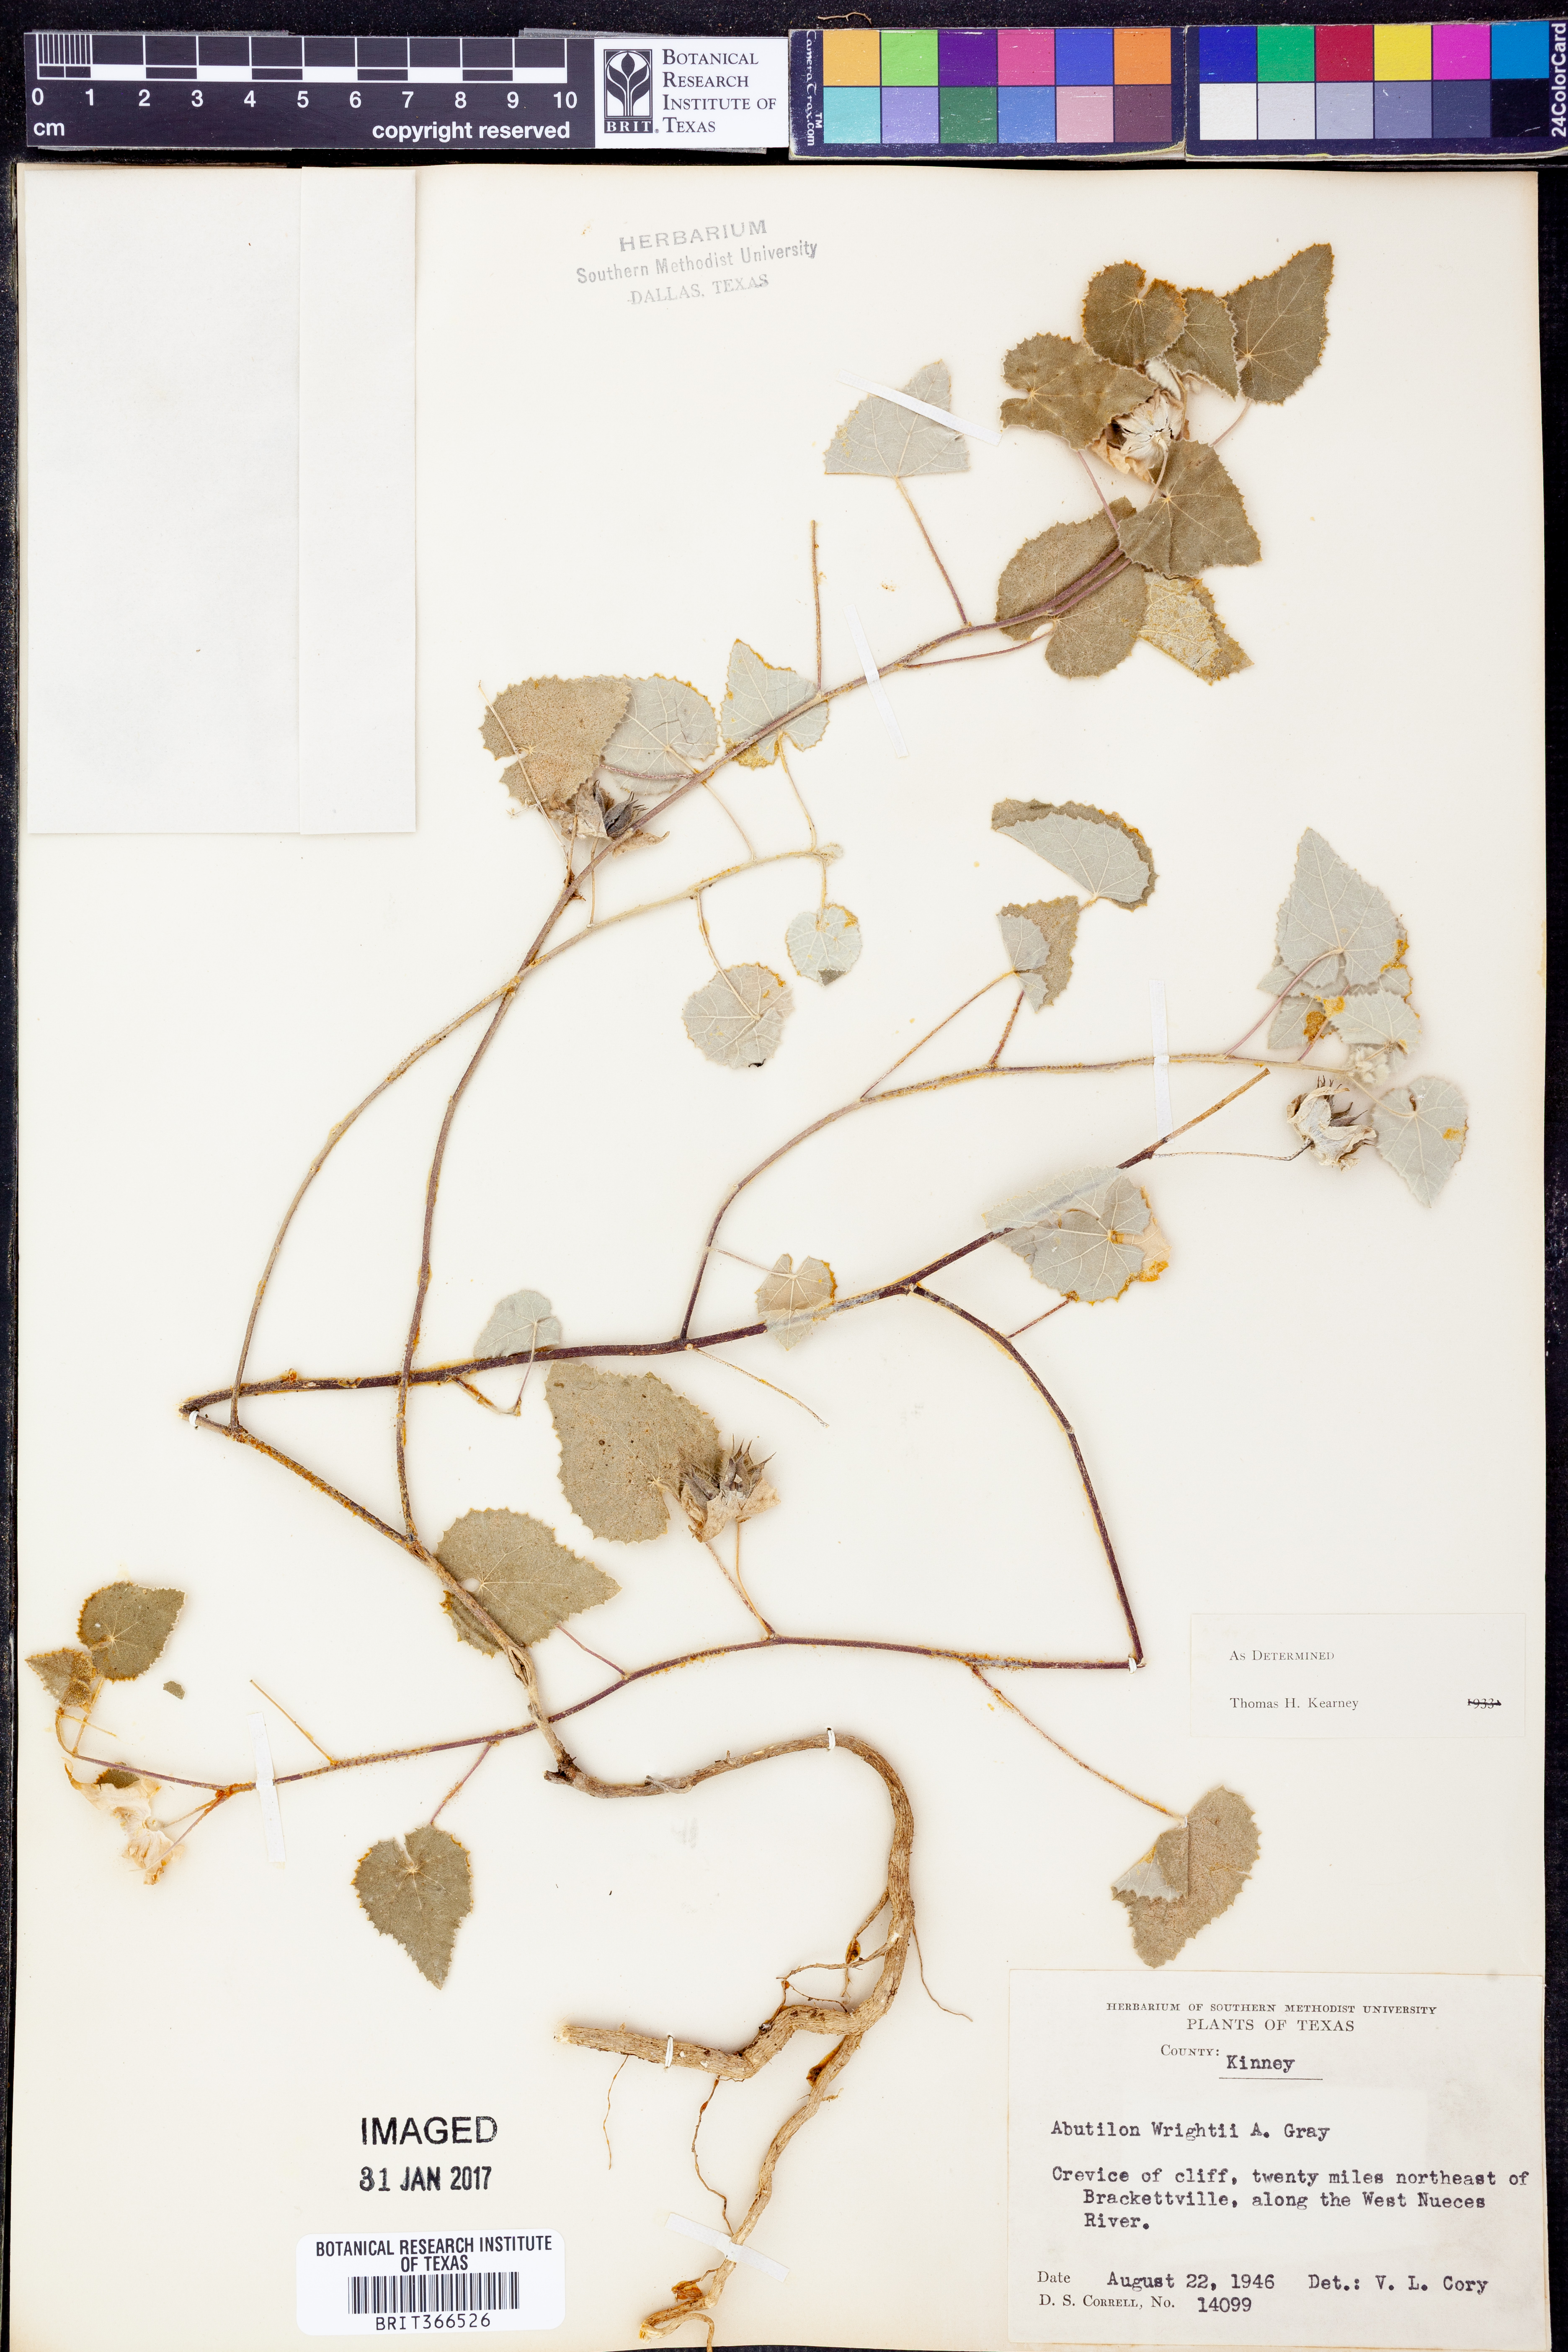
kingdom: Plantae
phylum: Tracheophyta
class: Magnoliopsida
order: Malvales
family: Malvaceae
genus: Abutilon
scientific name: Abutilon wrightii
